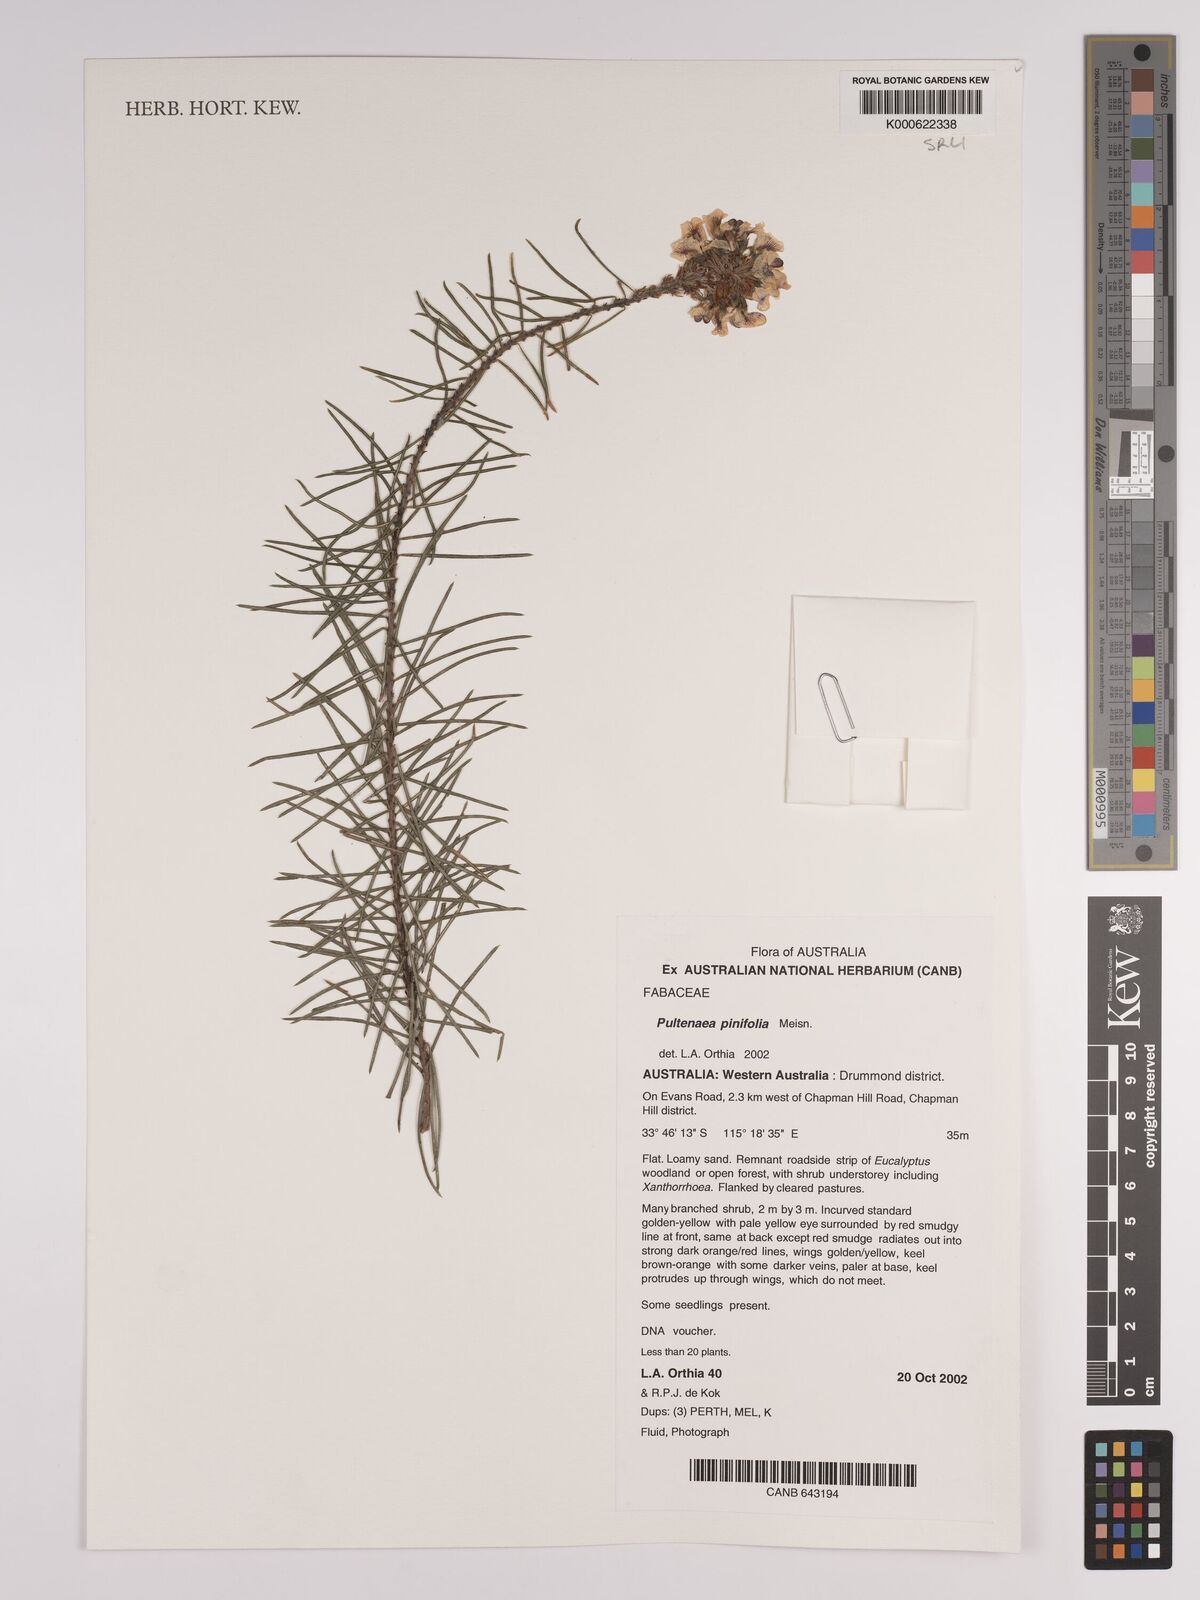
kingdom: Plantae
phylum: Tracheophyta
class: Magnoliopsida
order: Fabales
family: Fabaceae
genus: Pultenaea
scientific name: Pultenaea pinifolia
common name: Tree pultenaea
